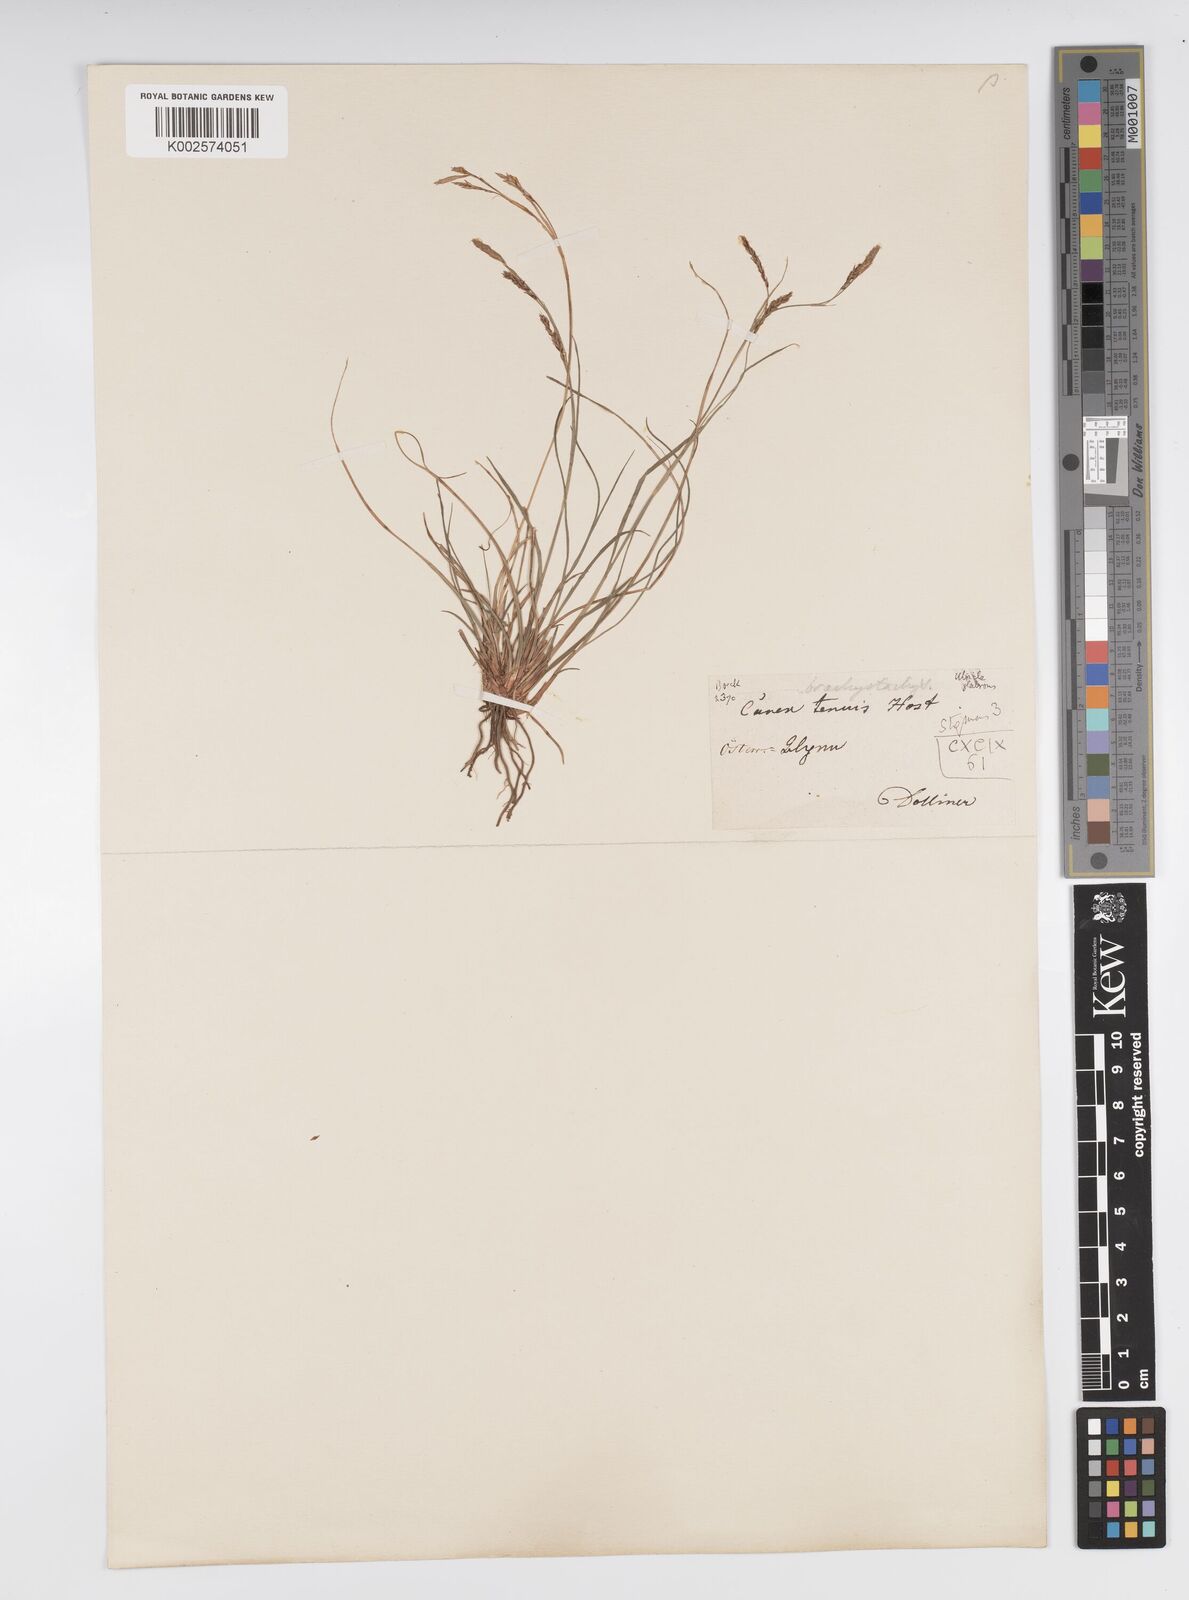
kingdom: Plantae
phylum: Tracheophyta
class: Liliopsida
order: Poales
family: Cyperaceae
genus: Carex
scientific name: Carex brachystachys
